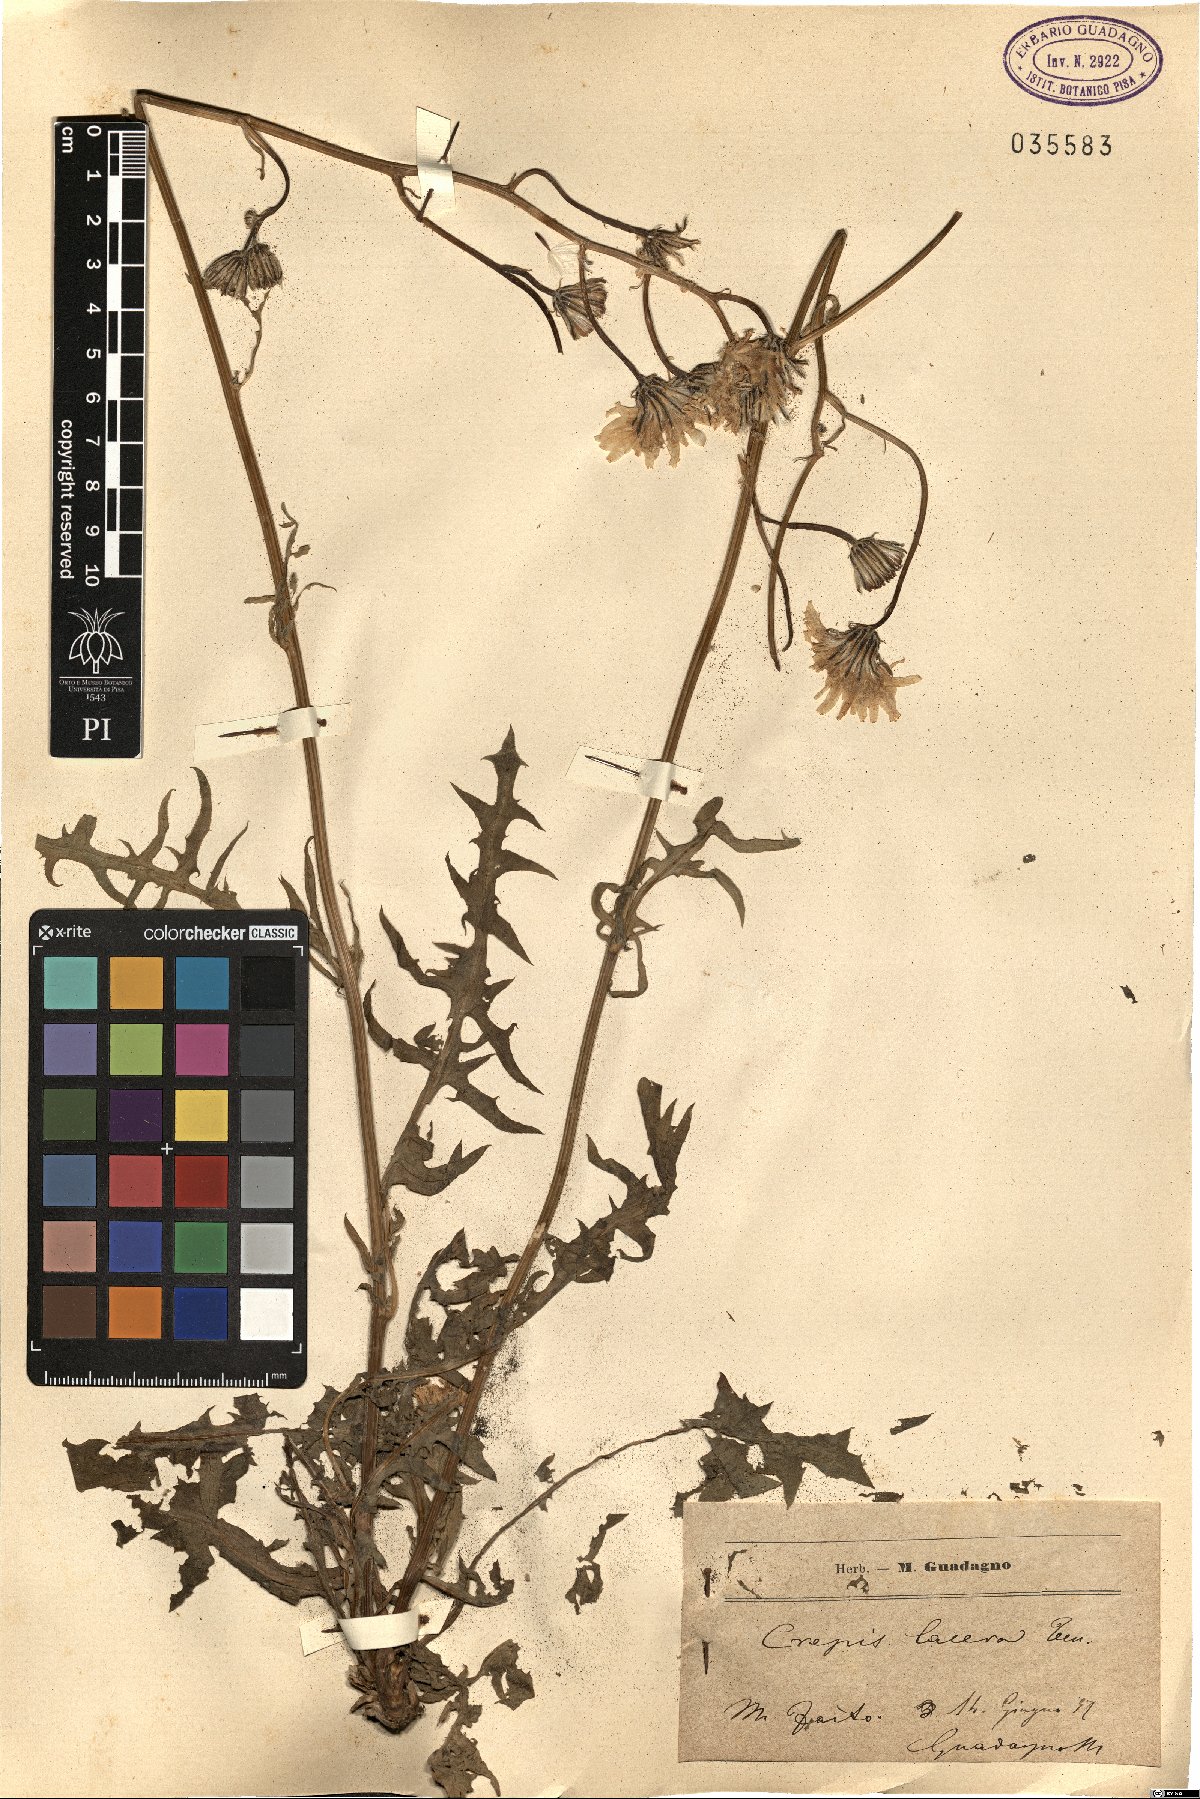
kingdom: Plantae
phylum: Tracheophyta
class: Magnoliopsida
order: Asterales
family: Asteraceae
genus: Crepis
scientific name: Crepis lacera
